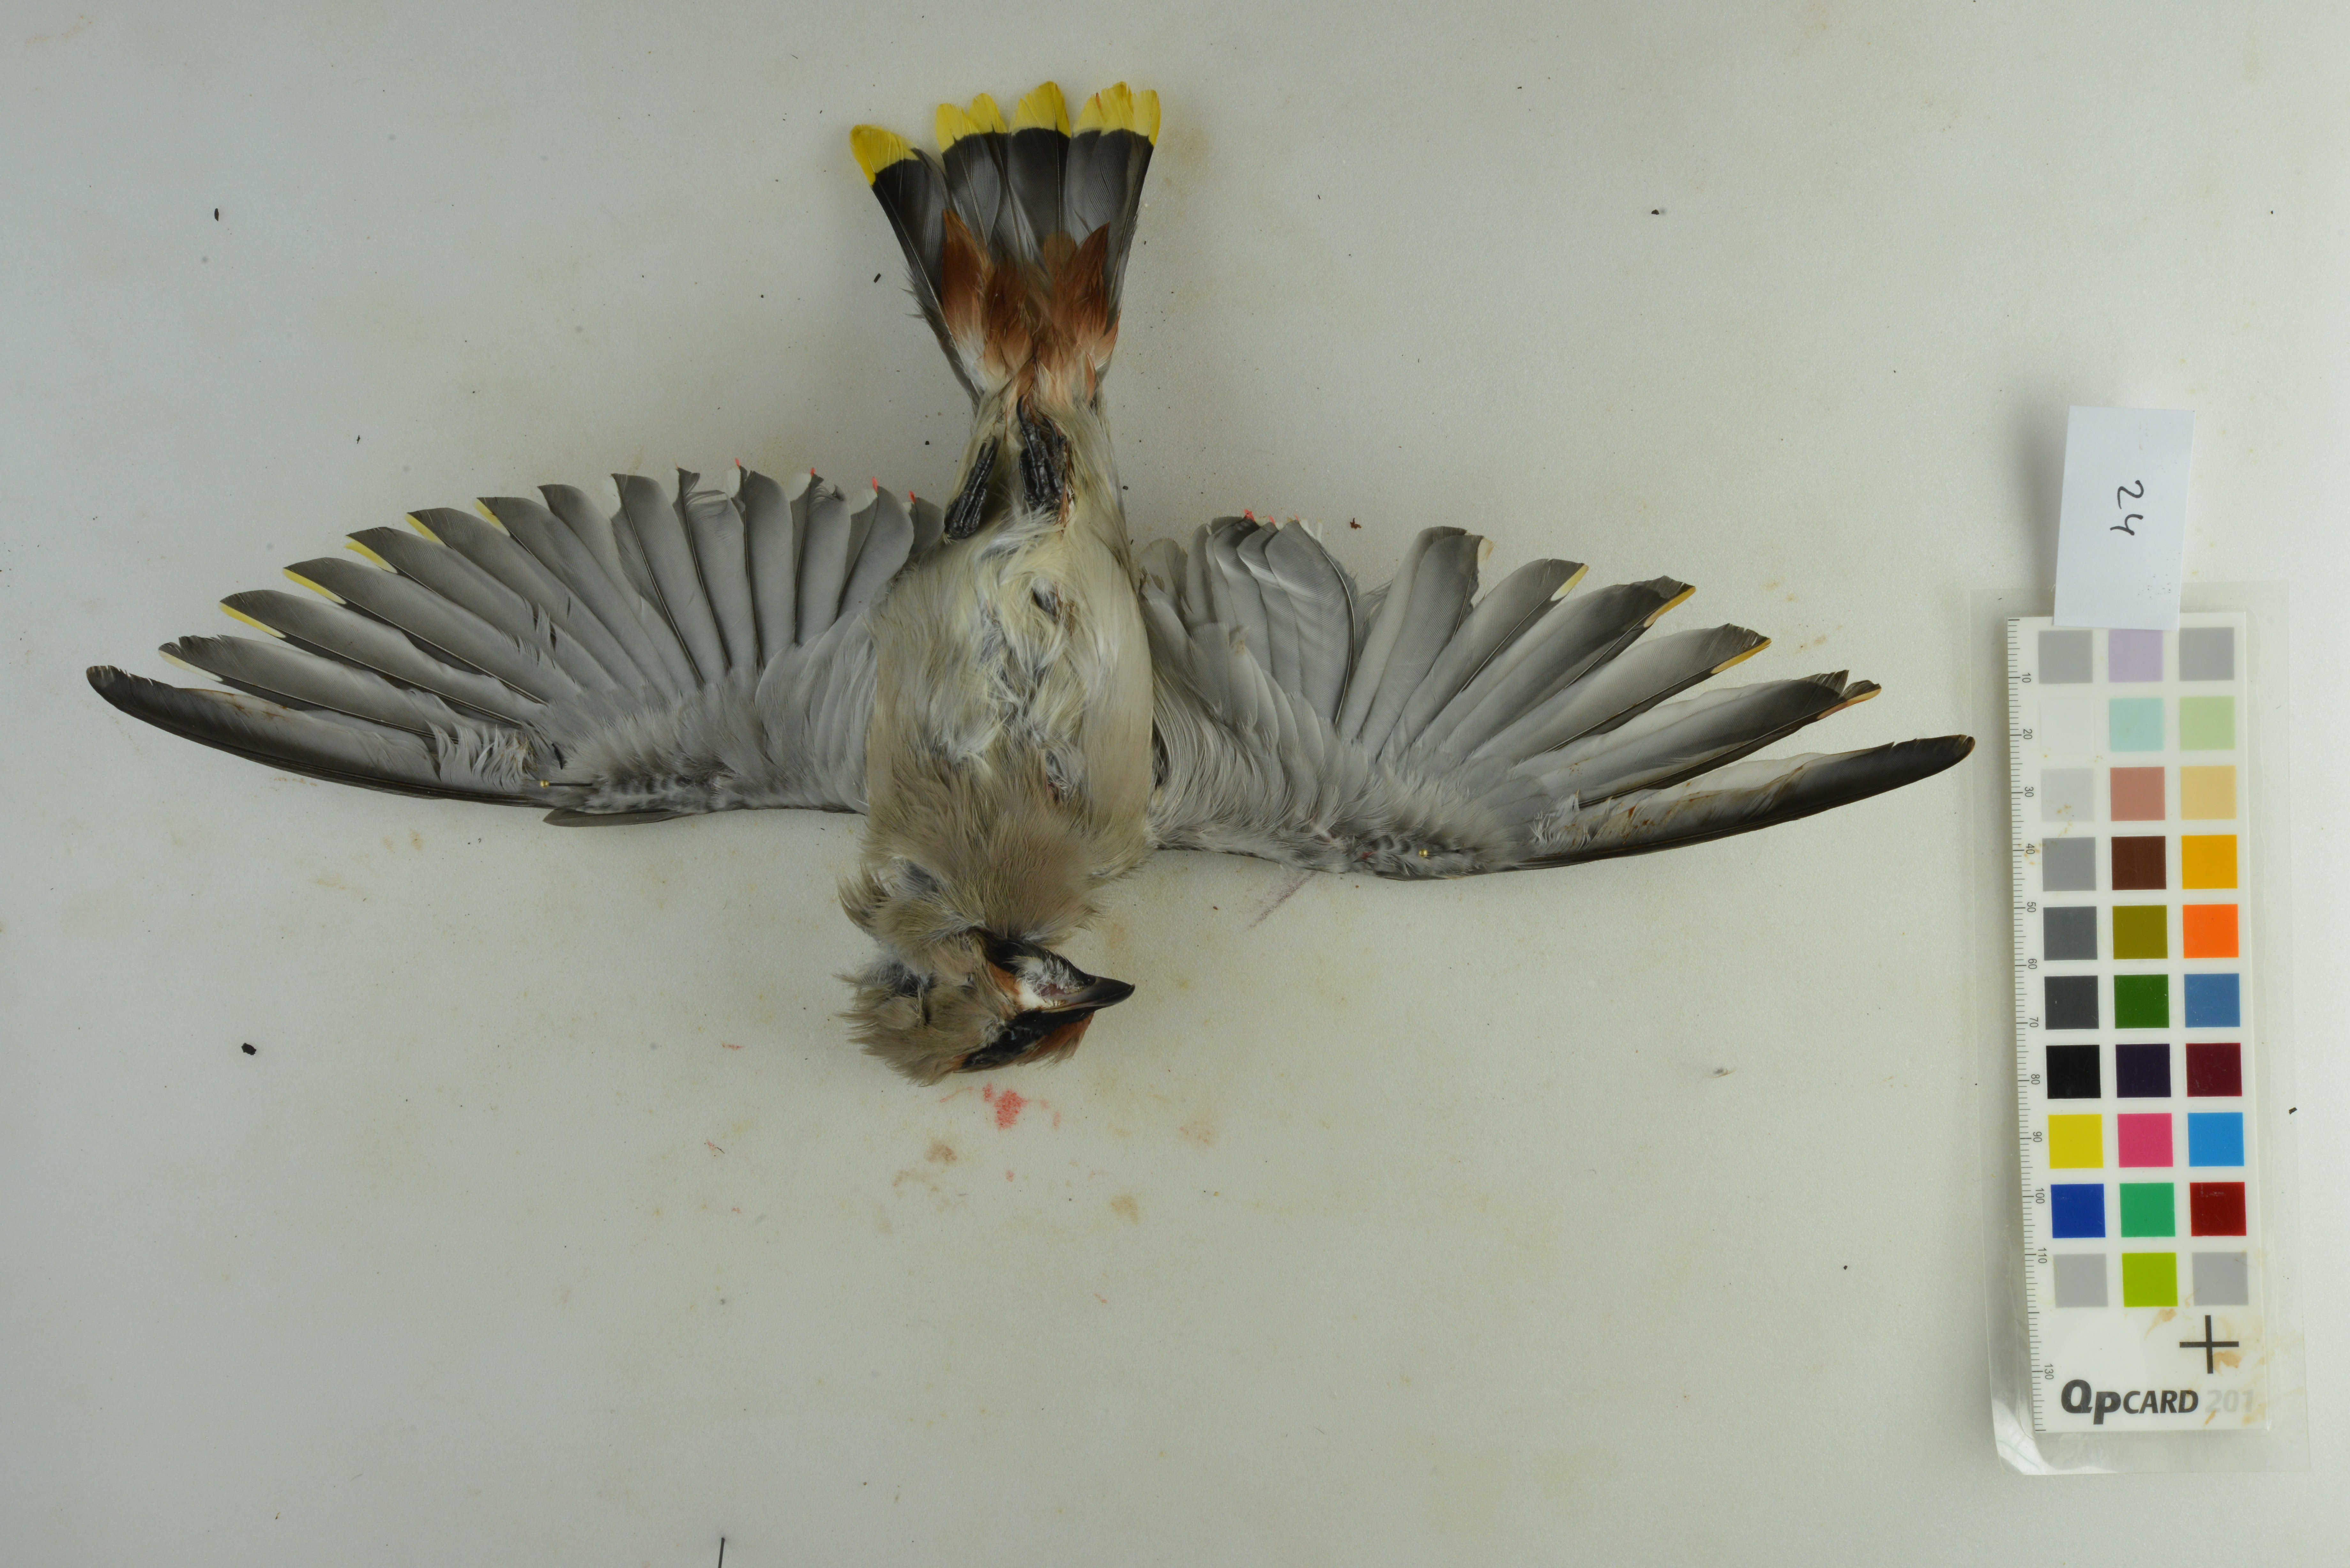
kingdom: Animalia
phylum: Chordata
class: Aves
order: Passeriformes
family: Bombycillidae
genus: Bombycilla
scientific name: Bombycilla garrulus
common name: Bohemian waxwing
